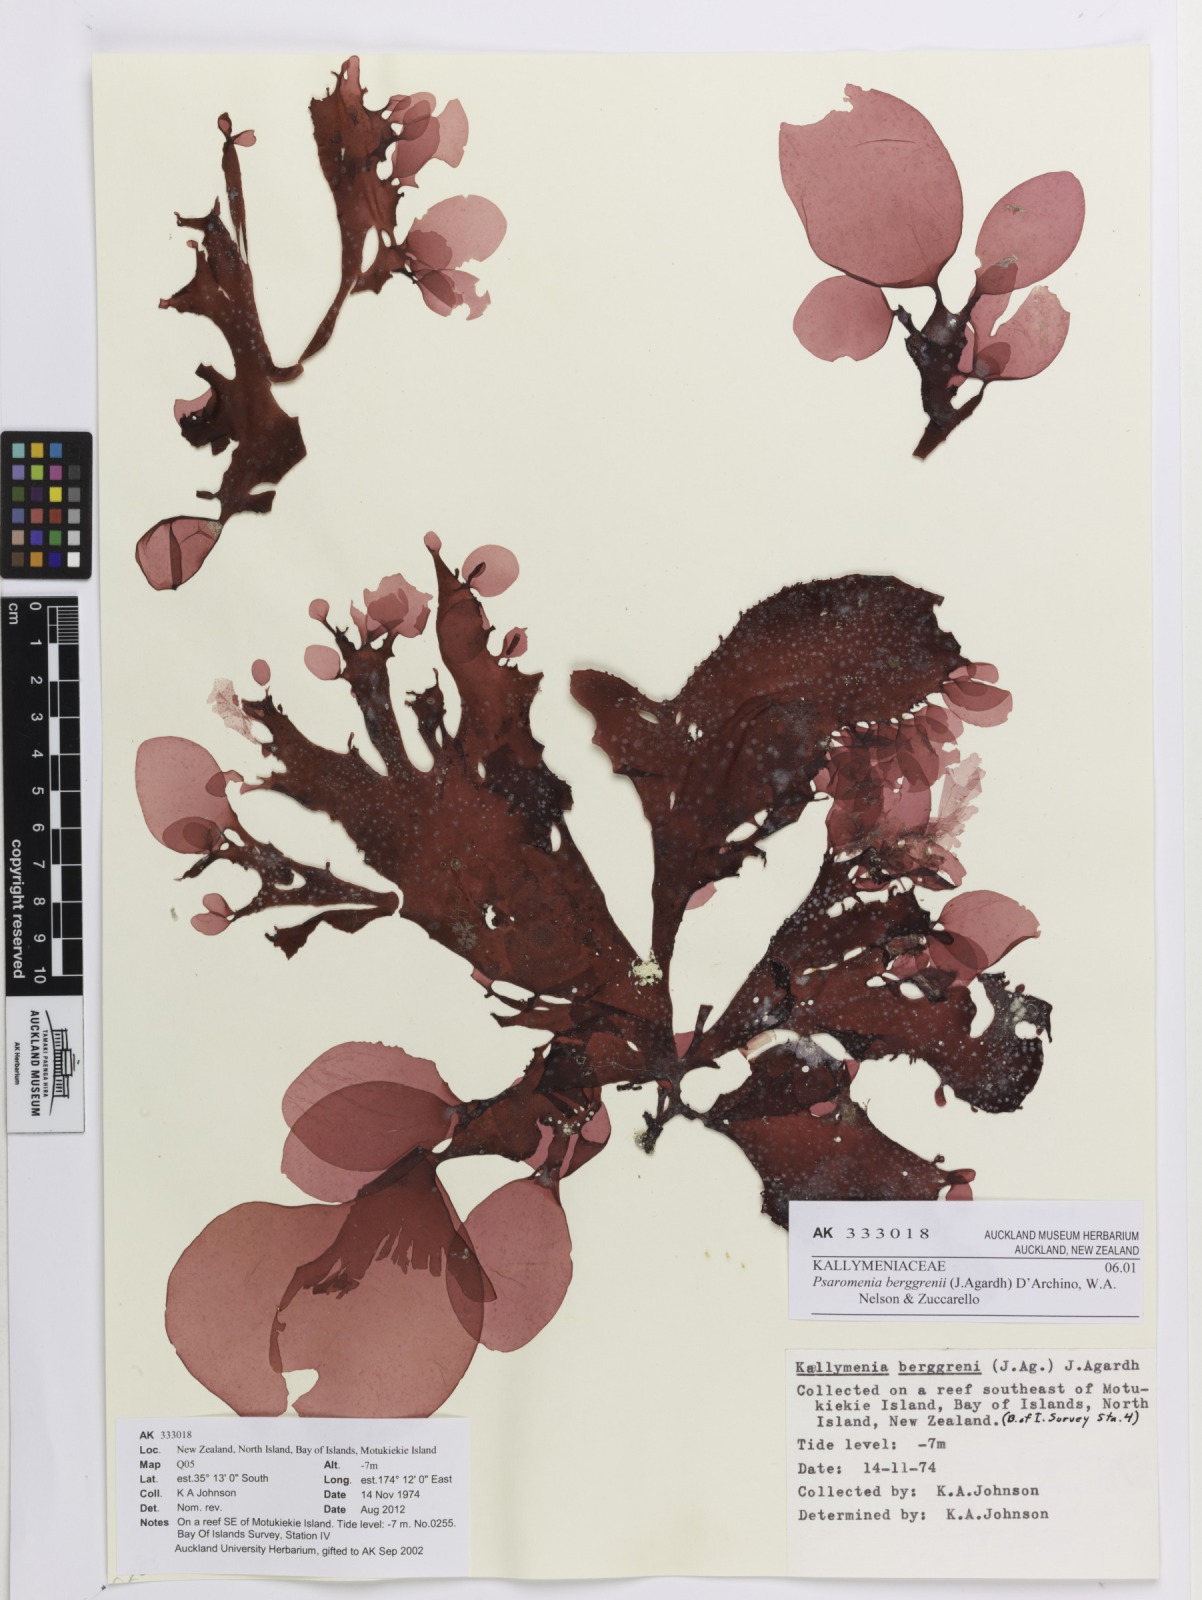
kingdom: Plantae
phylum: Rhodophyta
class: Florideophyceae
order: Gigartinales
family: Kallymeniaceae
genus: Psaromenia
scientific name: Psaromenia berggrenii
